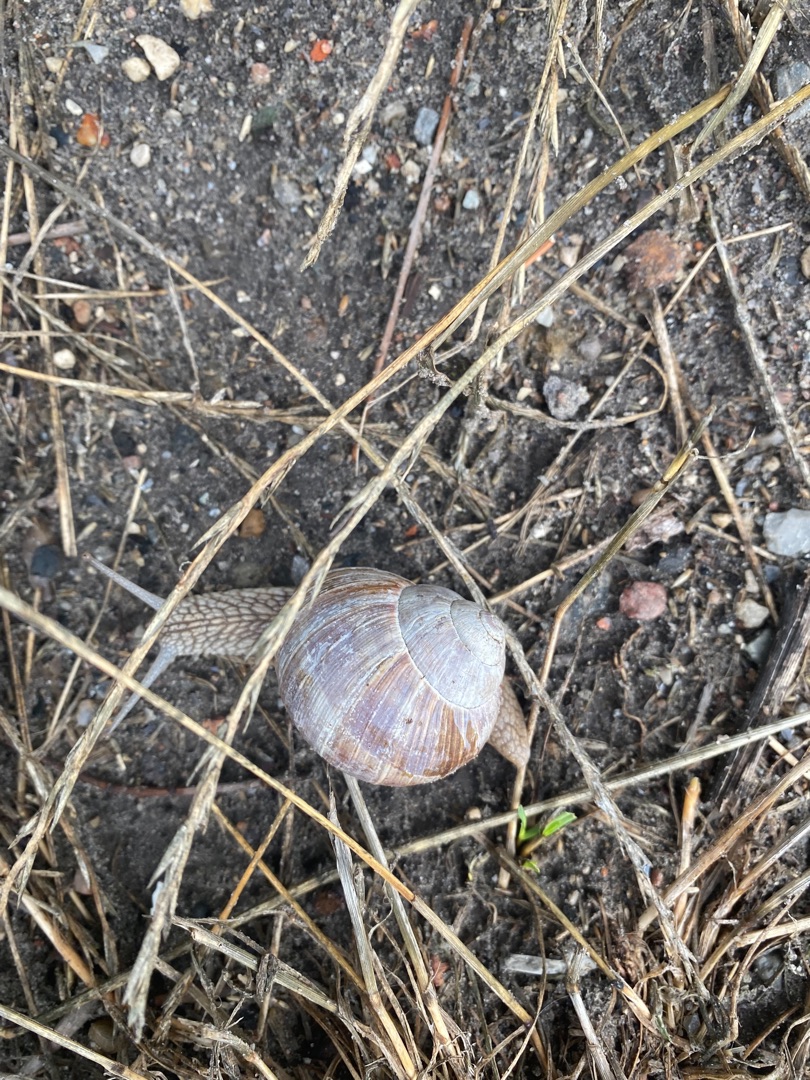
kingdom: Animalia
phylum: Mollusca
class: Gastropoda
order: Stylommatophora
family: Helicidae
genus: Helix
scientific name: Helix pomatia
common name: Vinbjergsnegl
